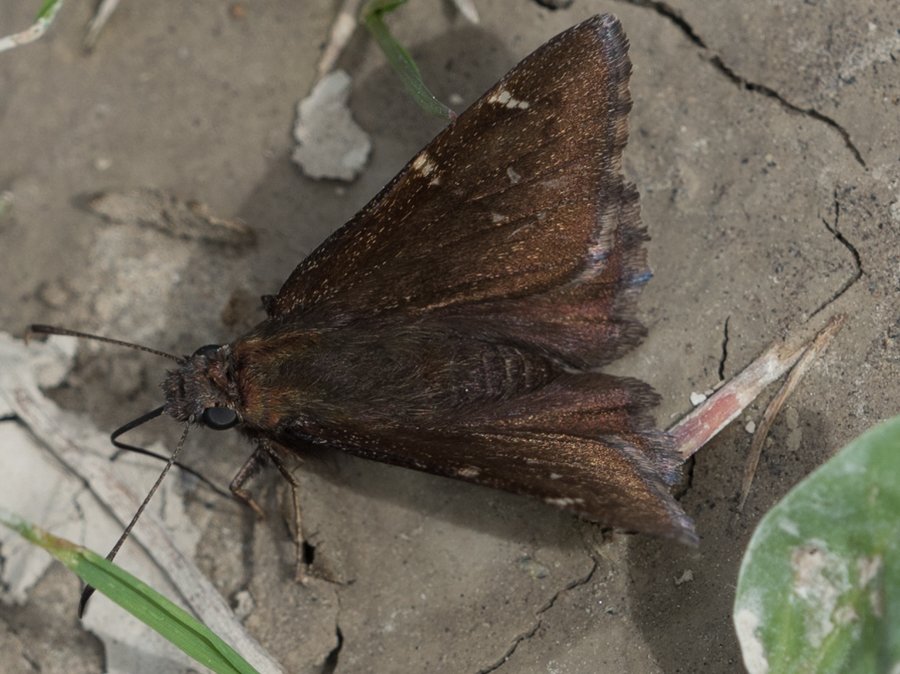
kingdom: Animalia
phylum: Arthropoda
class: Insecta
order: Lepidoptera
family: Hesperiidae
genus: Autochton
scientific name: Autochton
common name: Northern Cloudywing
